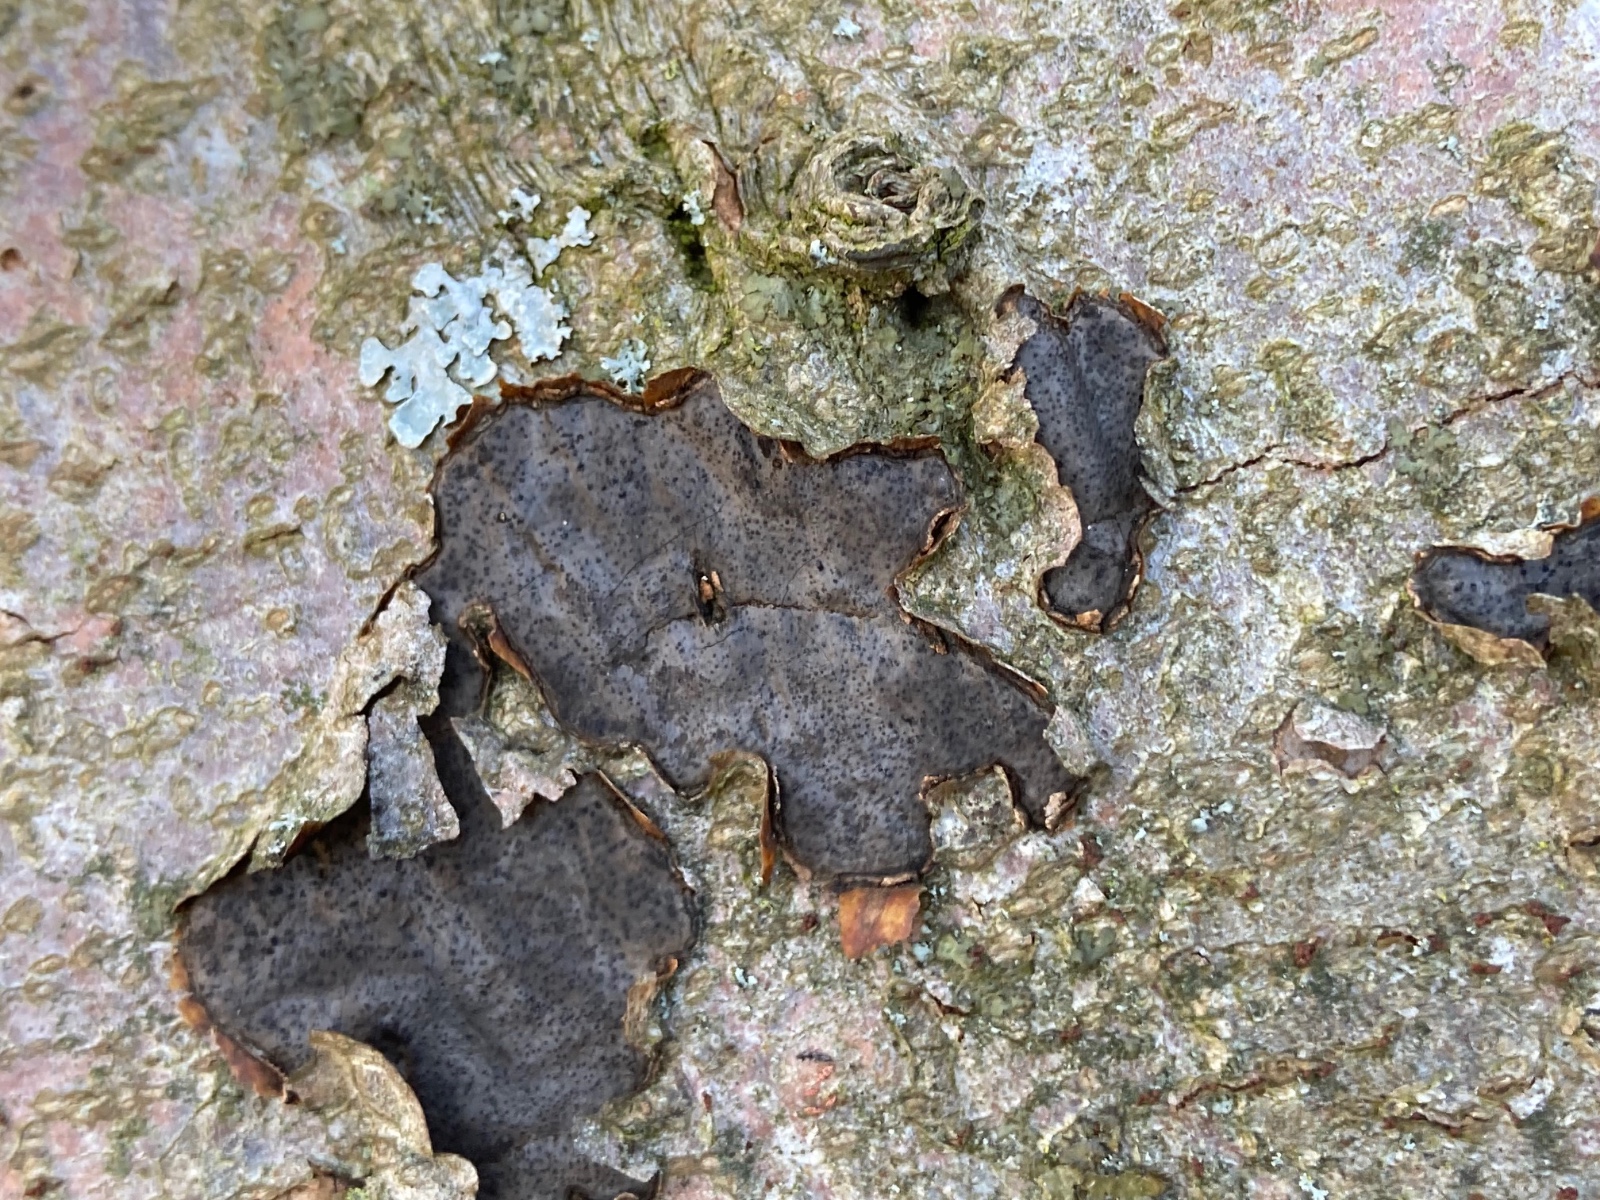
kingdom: Fungi
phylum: Ascomycota
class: Sordariomycetes
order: Xylariales
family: Graphostromataceae
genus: Biscogniauxia
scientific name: Biscogniauxia nummularia
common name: bøge-kulskive
